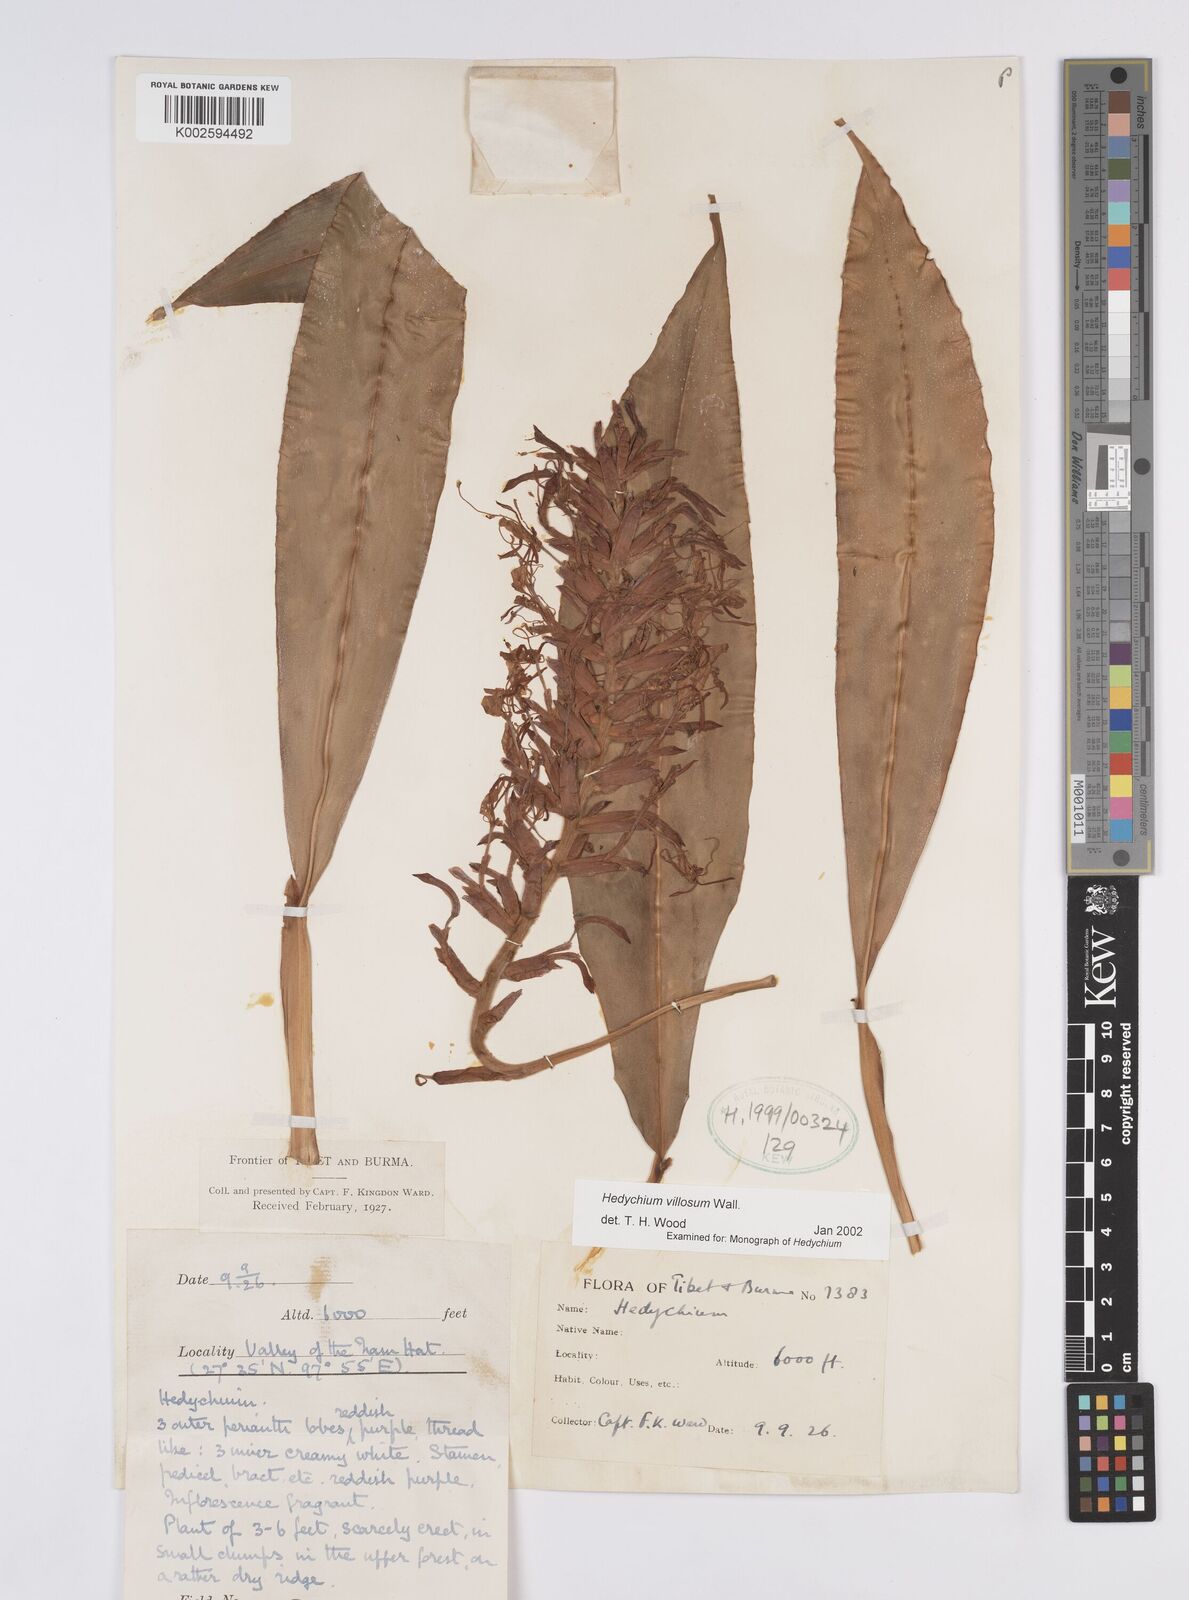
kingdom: Plantae
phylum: Tracheophyta
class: Liliopsida
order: Zingiberales
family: Zingiberaceae
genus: Hedychium
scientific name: Hedychium villosum
